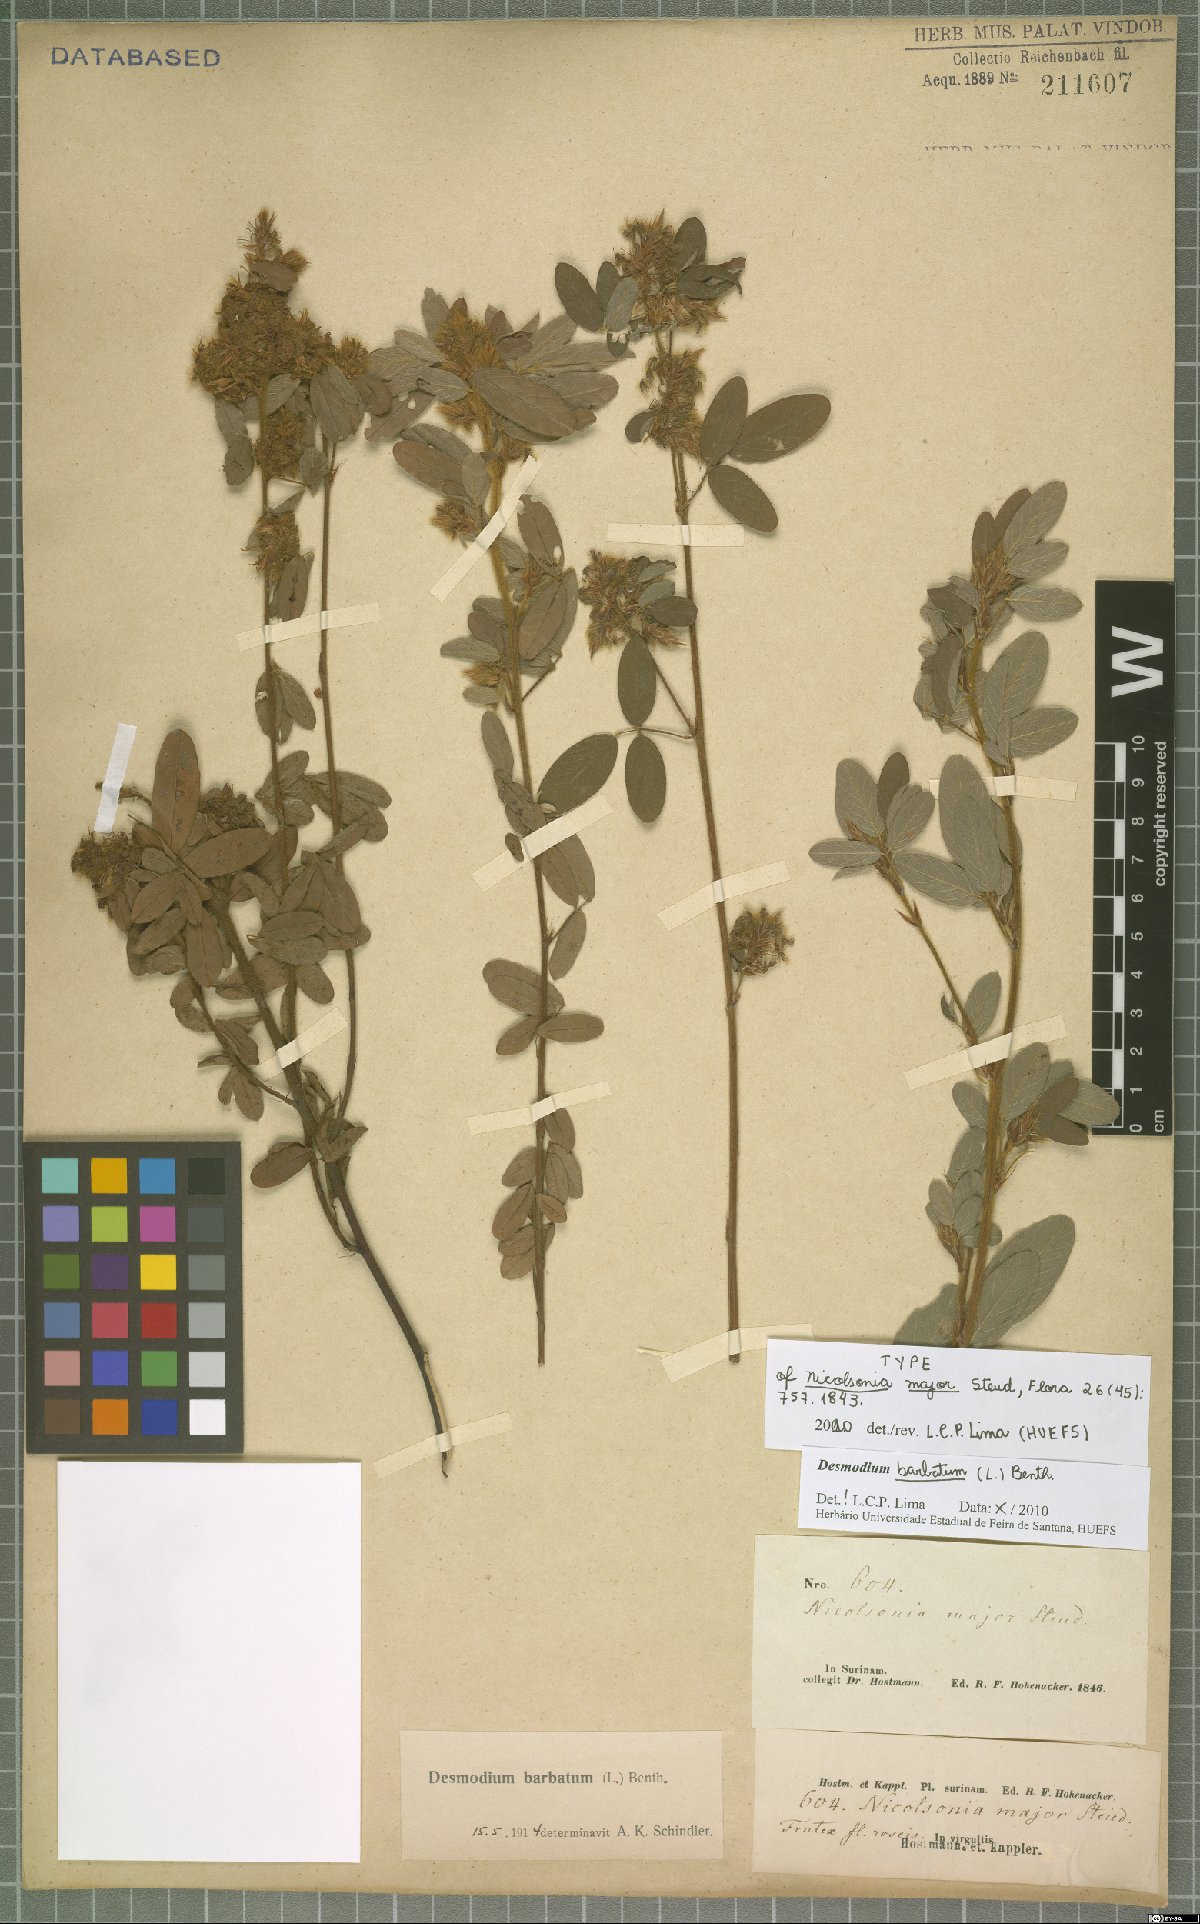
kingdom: Plantae
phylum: Tracheophyta
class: Magnoliopsida
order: Fabales
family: Fabaceae
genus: Grona
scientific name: Grona barbata
